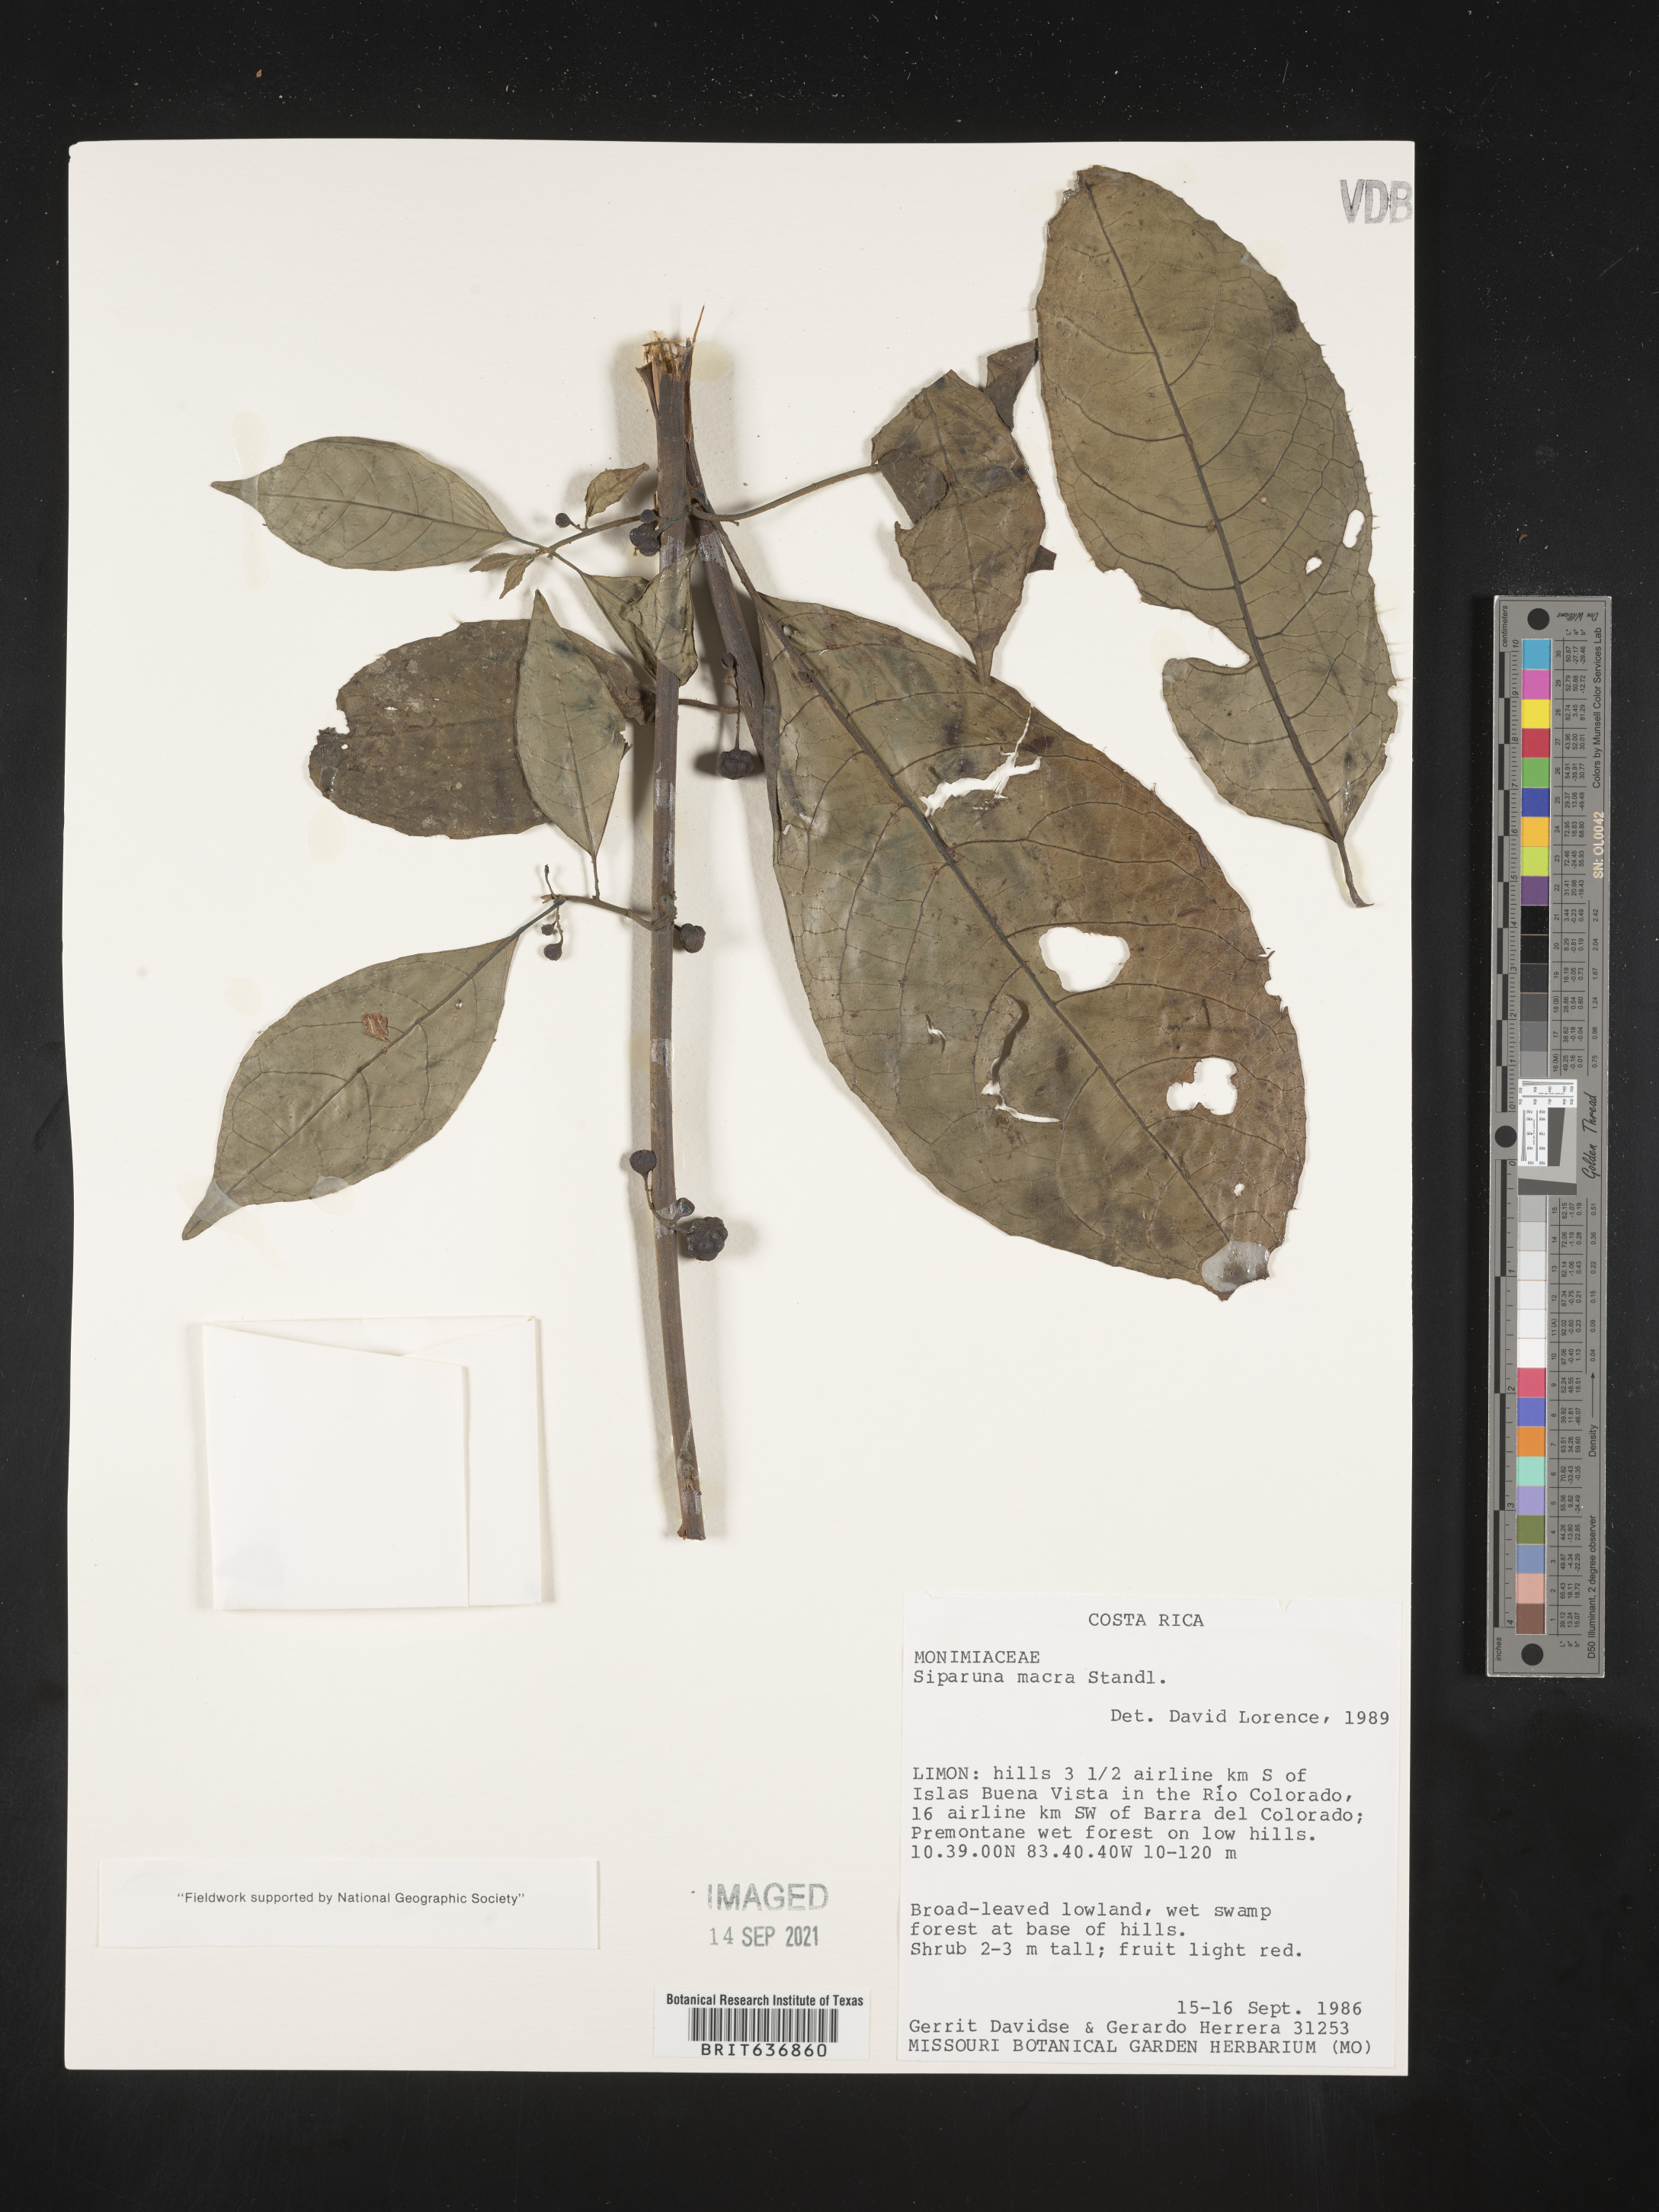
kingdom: Plantae
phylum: Tracheophyta
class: Magnoliopsida
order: Laurales
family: Siparunaceae
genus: Siparuna
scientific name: Siparuna
